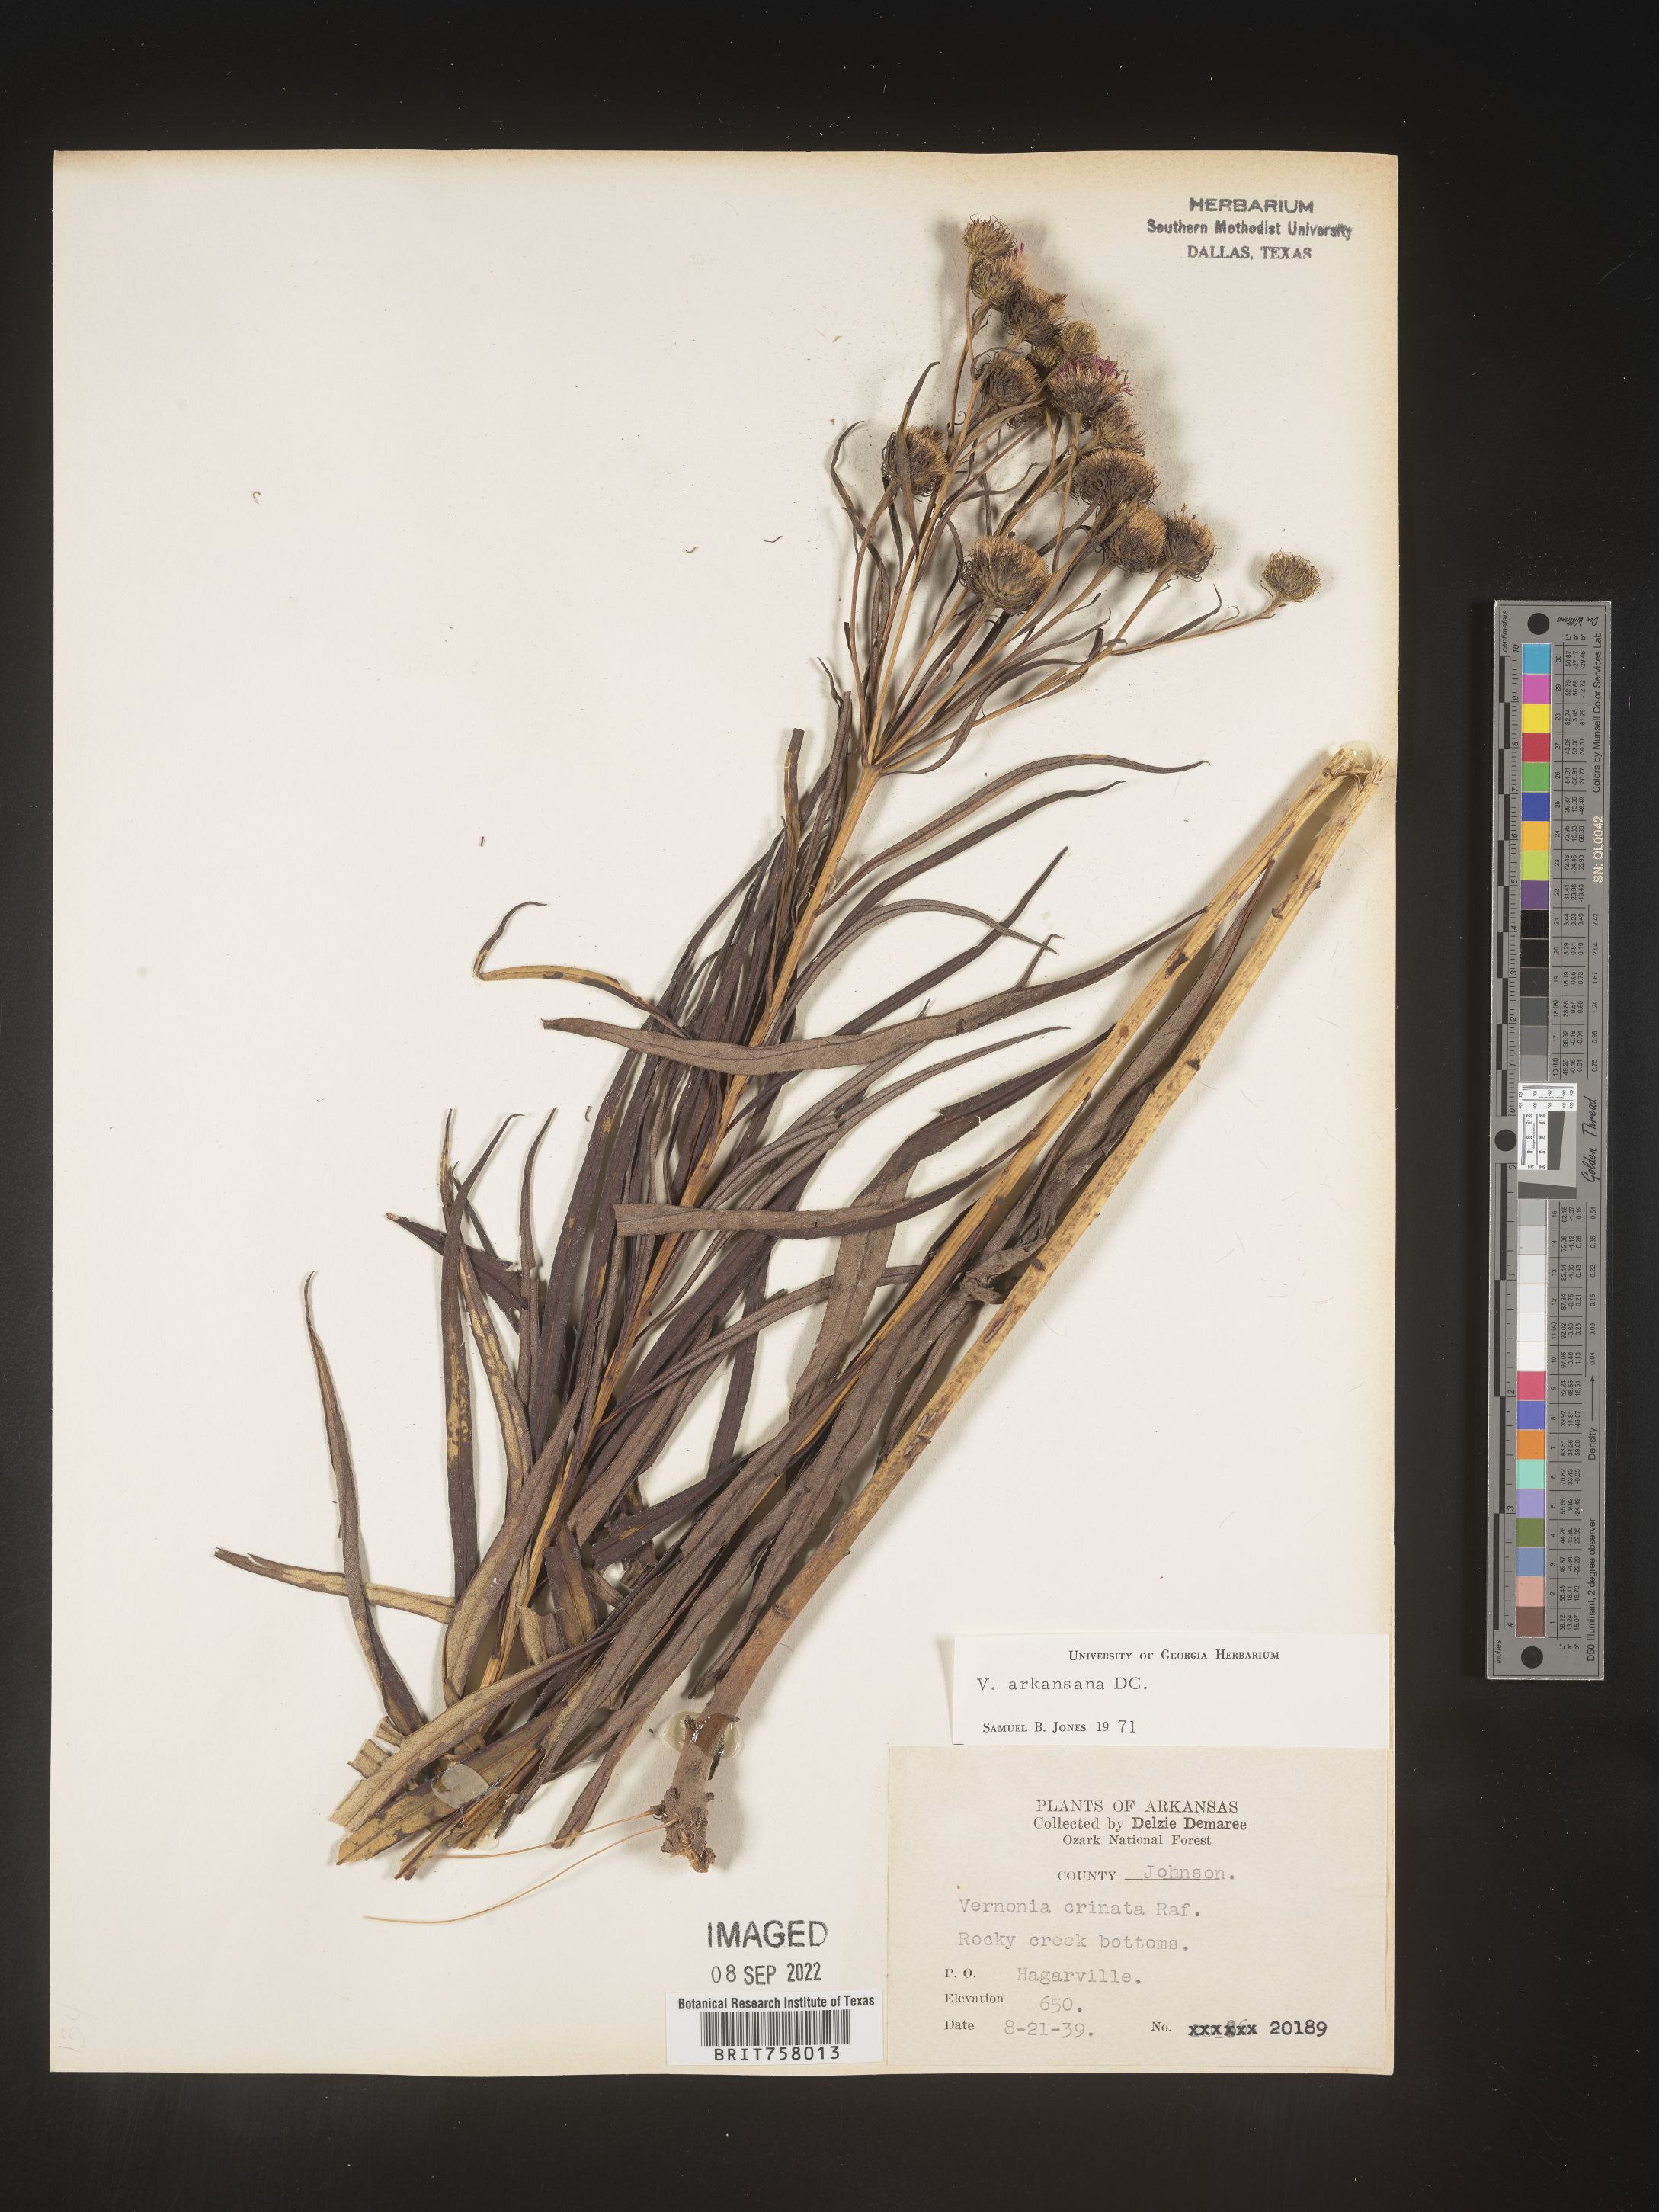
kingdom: Plantae
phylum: Tracheophyta
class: Magnoliopsida
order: Asterales
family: Asteraceae
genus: Vernonia
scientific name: Vernonia arkansana
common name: Ozark ironweed
